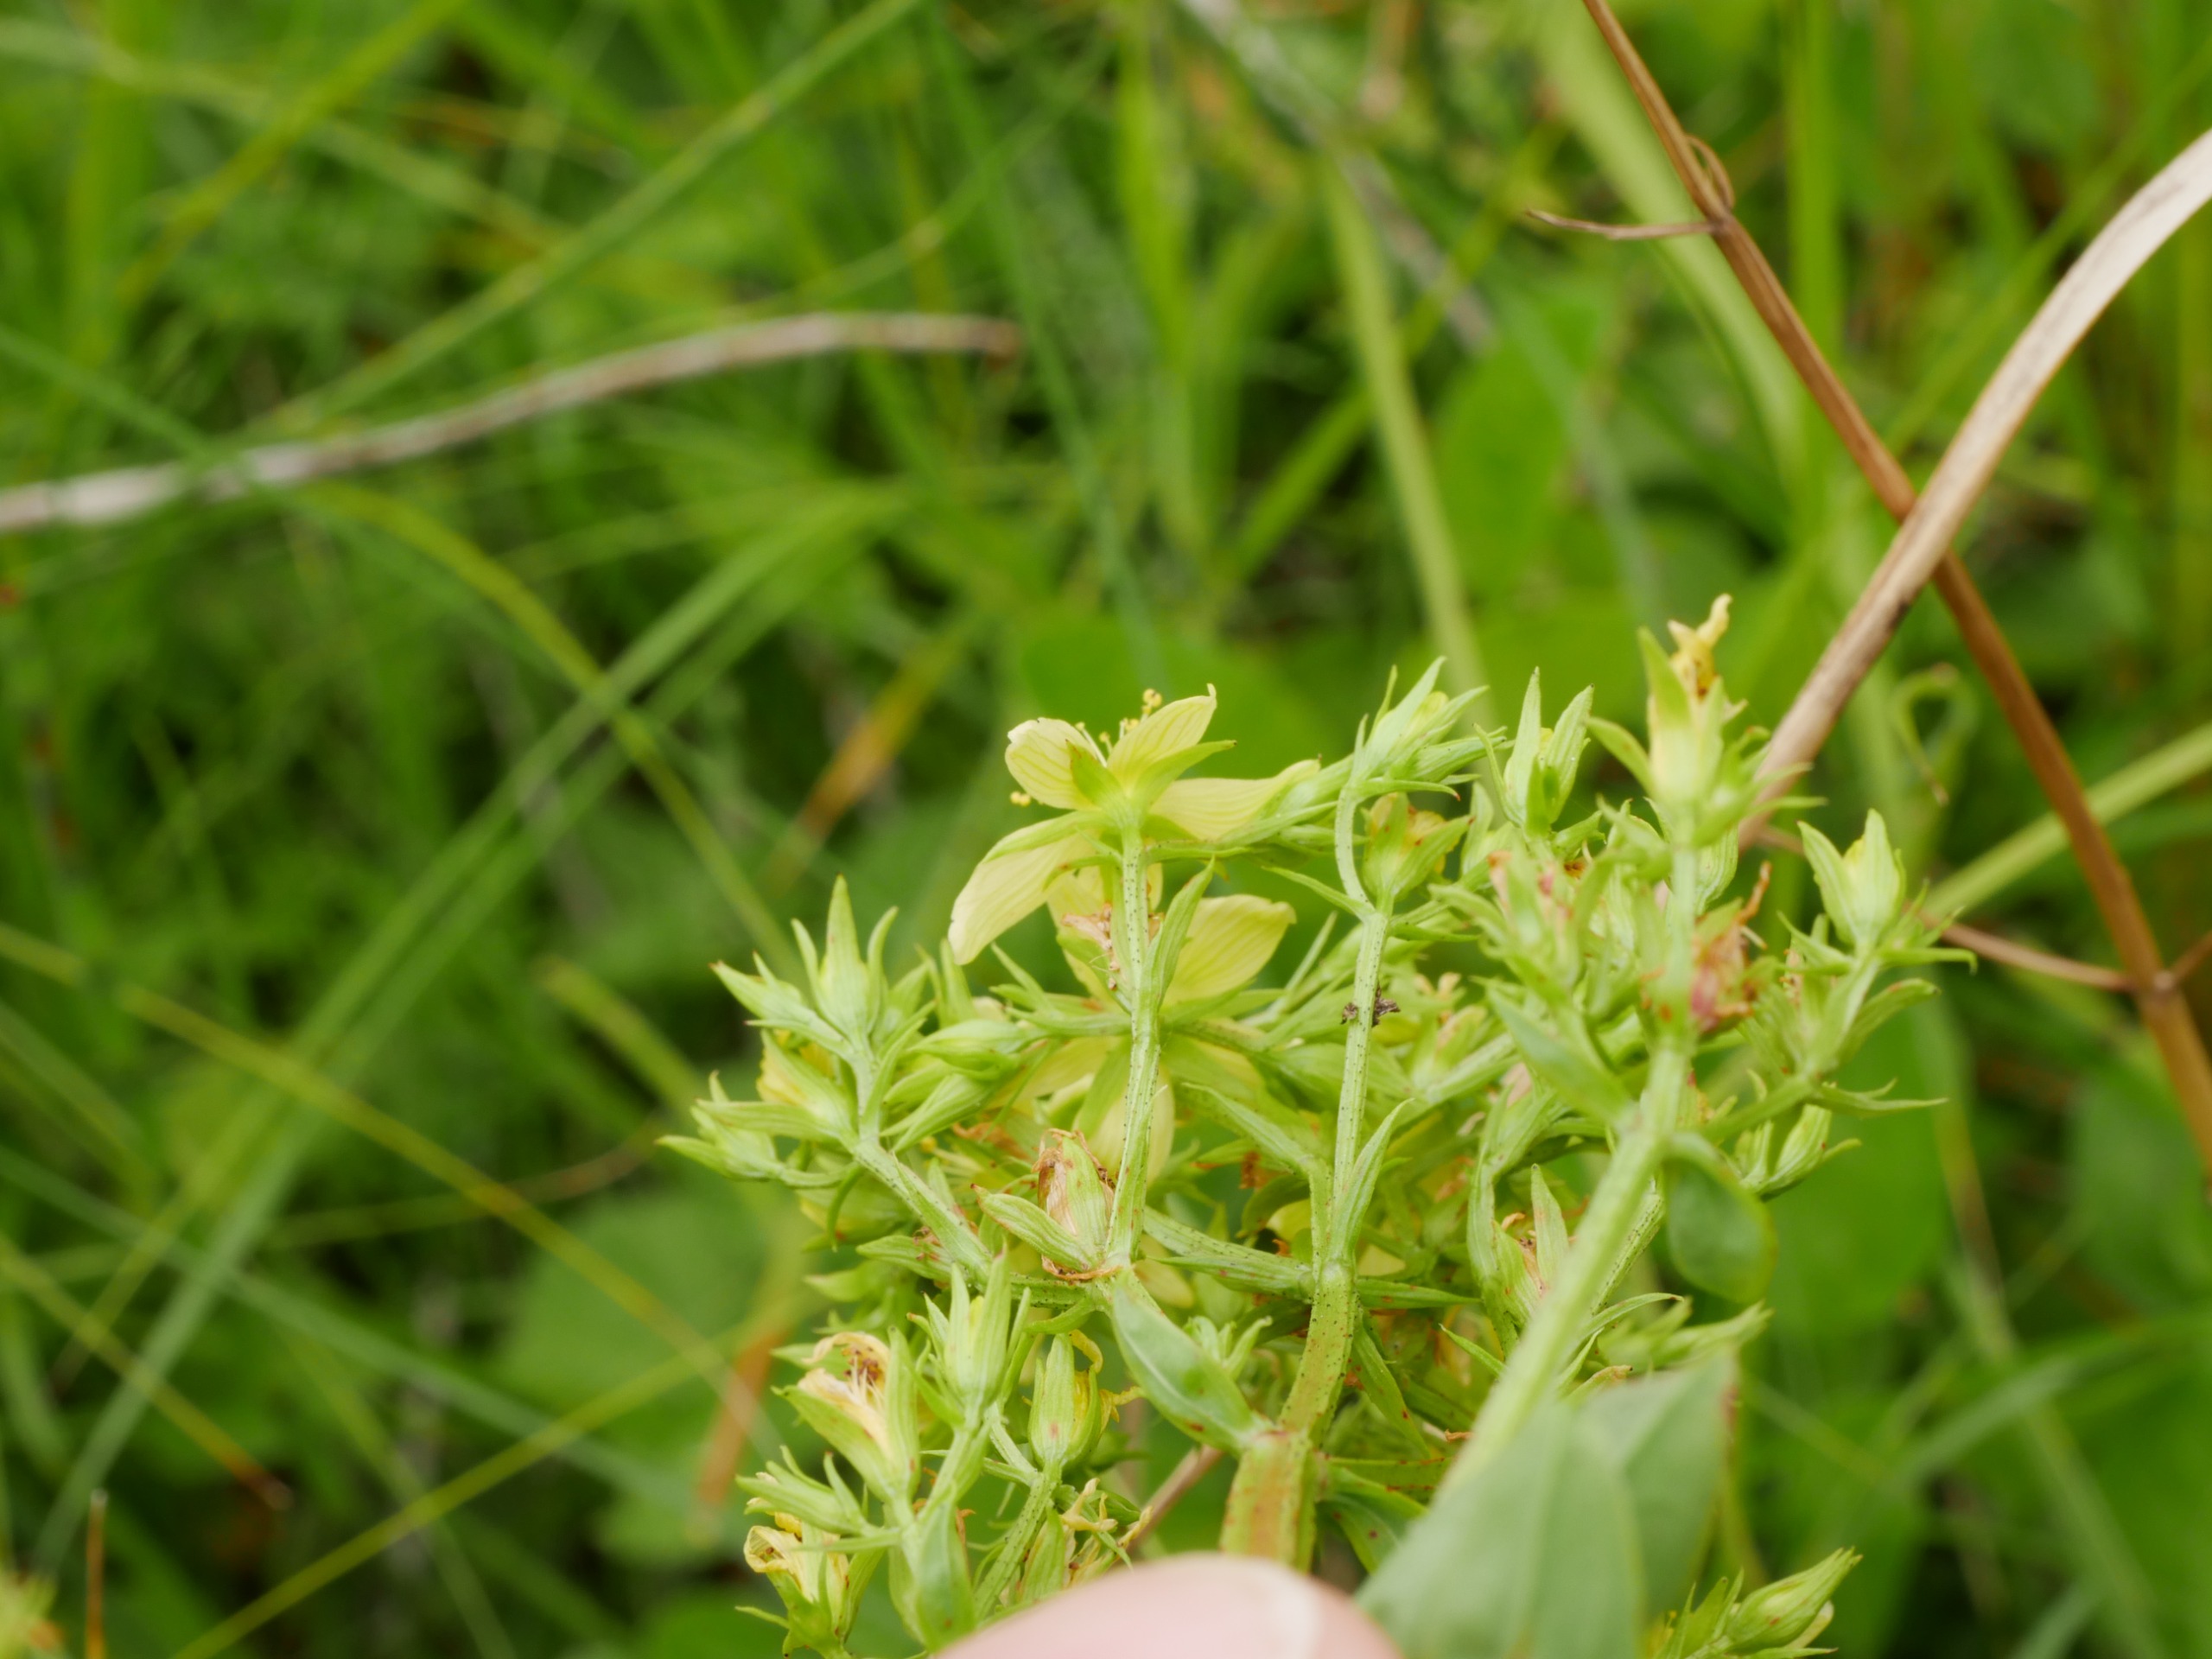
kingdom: Plantae
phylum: Tracheophyta
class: Magnoliopsida
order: Malpighiales
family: Hypericaceae
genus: Hypericum
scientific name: Hypericum tetrapterum
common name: Vinget perikon
